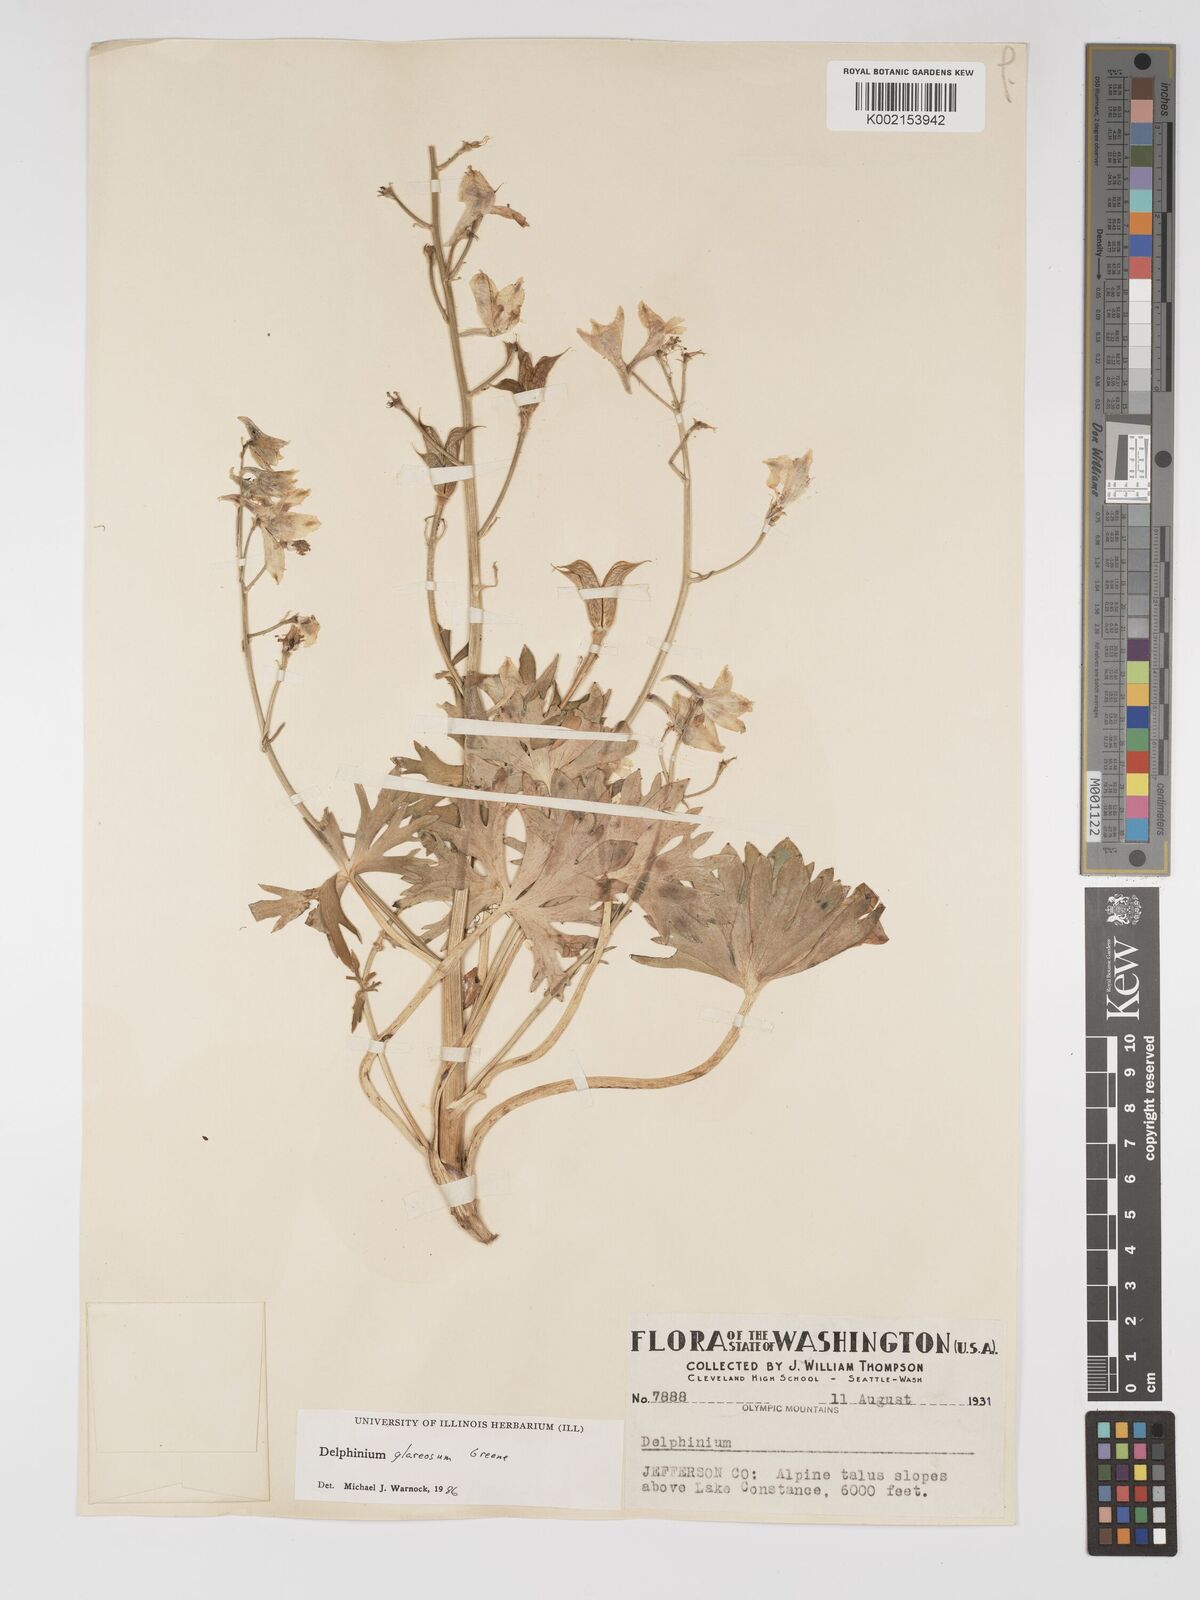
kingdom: Plantae
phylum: Tracheophyta
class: Magnoliopsida
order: Ranunculales
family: Ranunculaceae
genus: Delphinium
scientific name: Delphinium glareosum
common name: Olympic mountain larkspur
